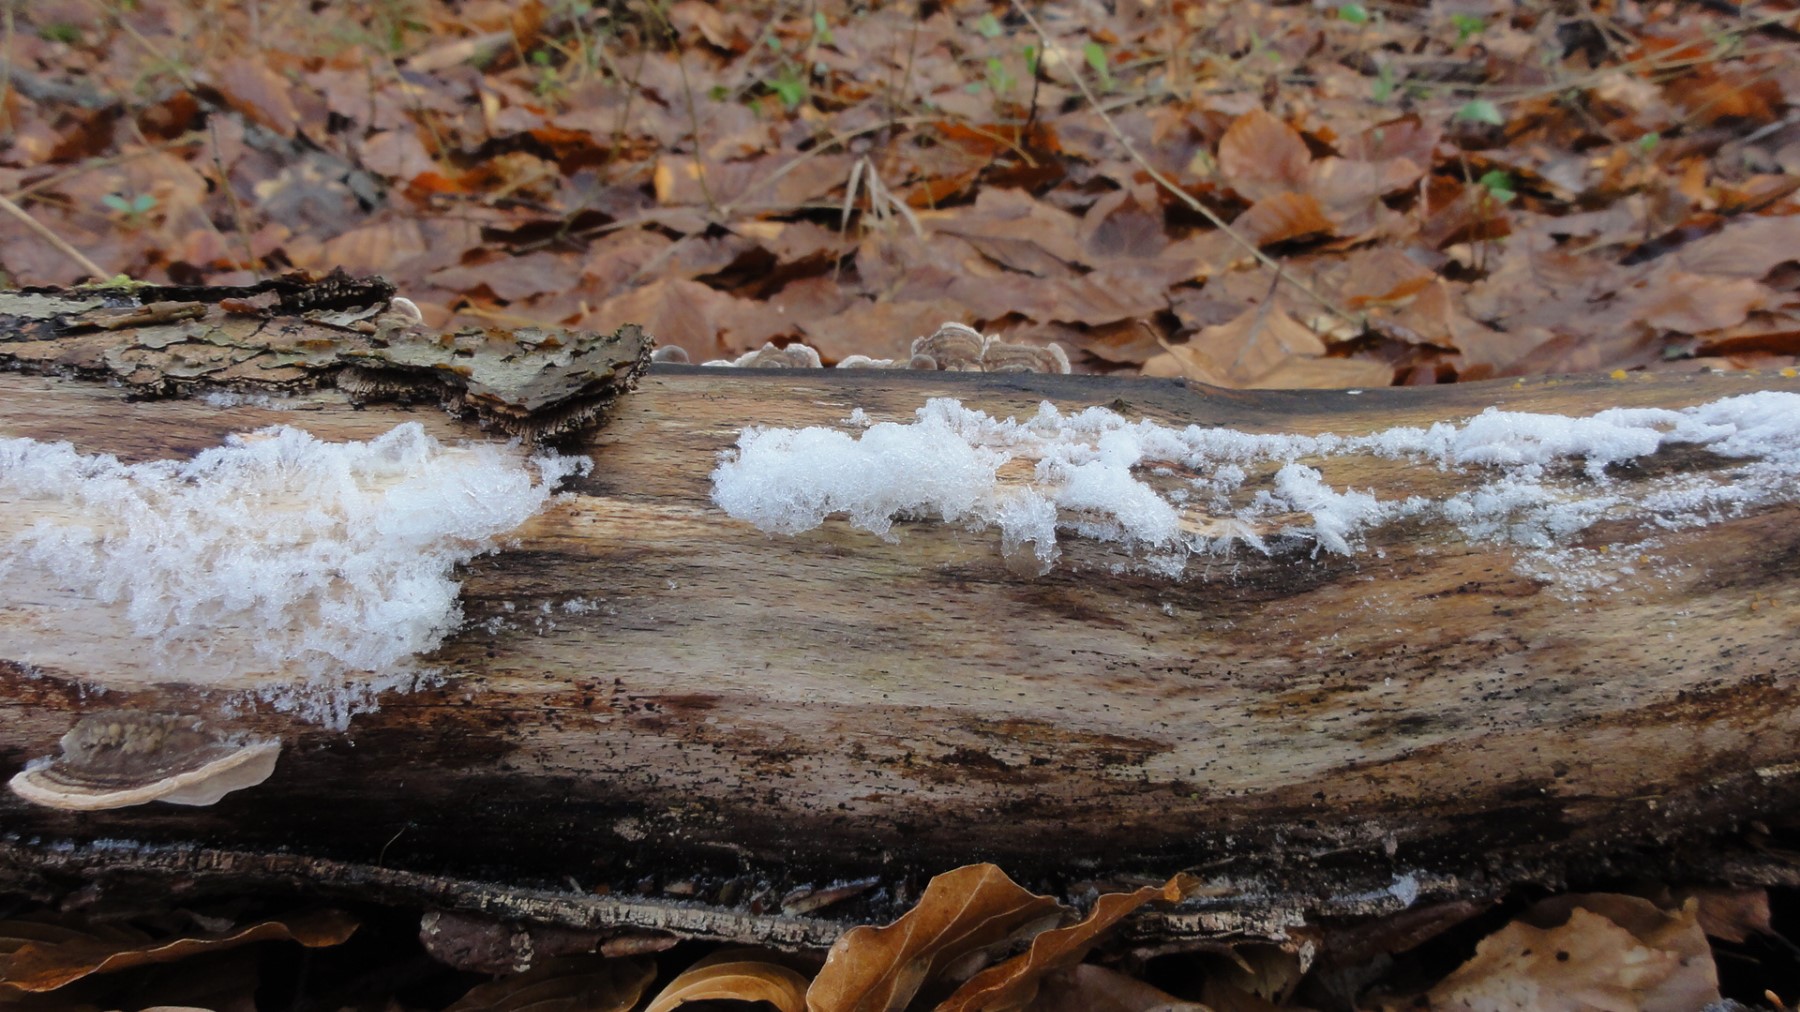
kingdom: Fungi
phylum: Basidiomycota
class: Tremellomycetes
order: Tremellales
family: Exidiaceae
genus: Exidiopsis
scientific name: Exidiopsis effusa
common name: smuk bævrehinde
